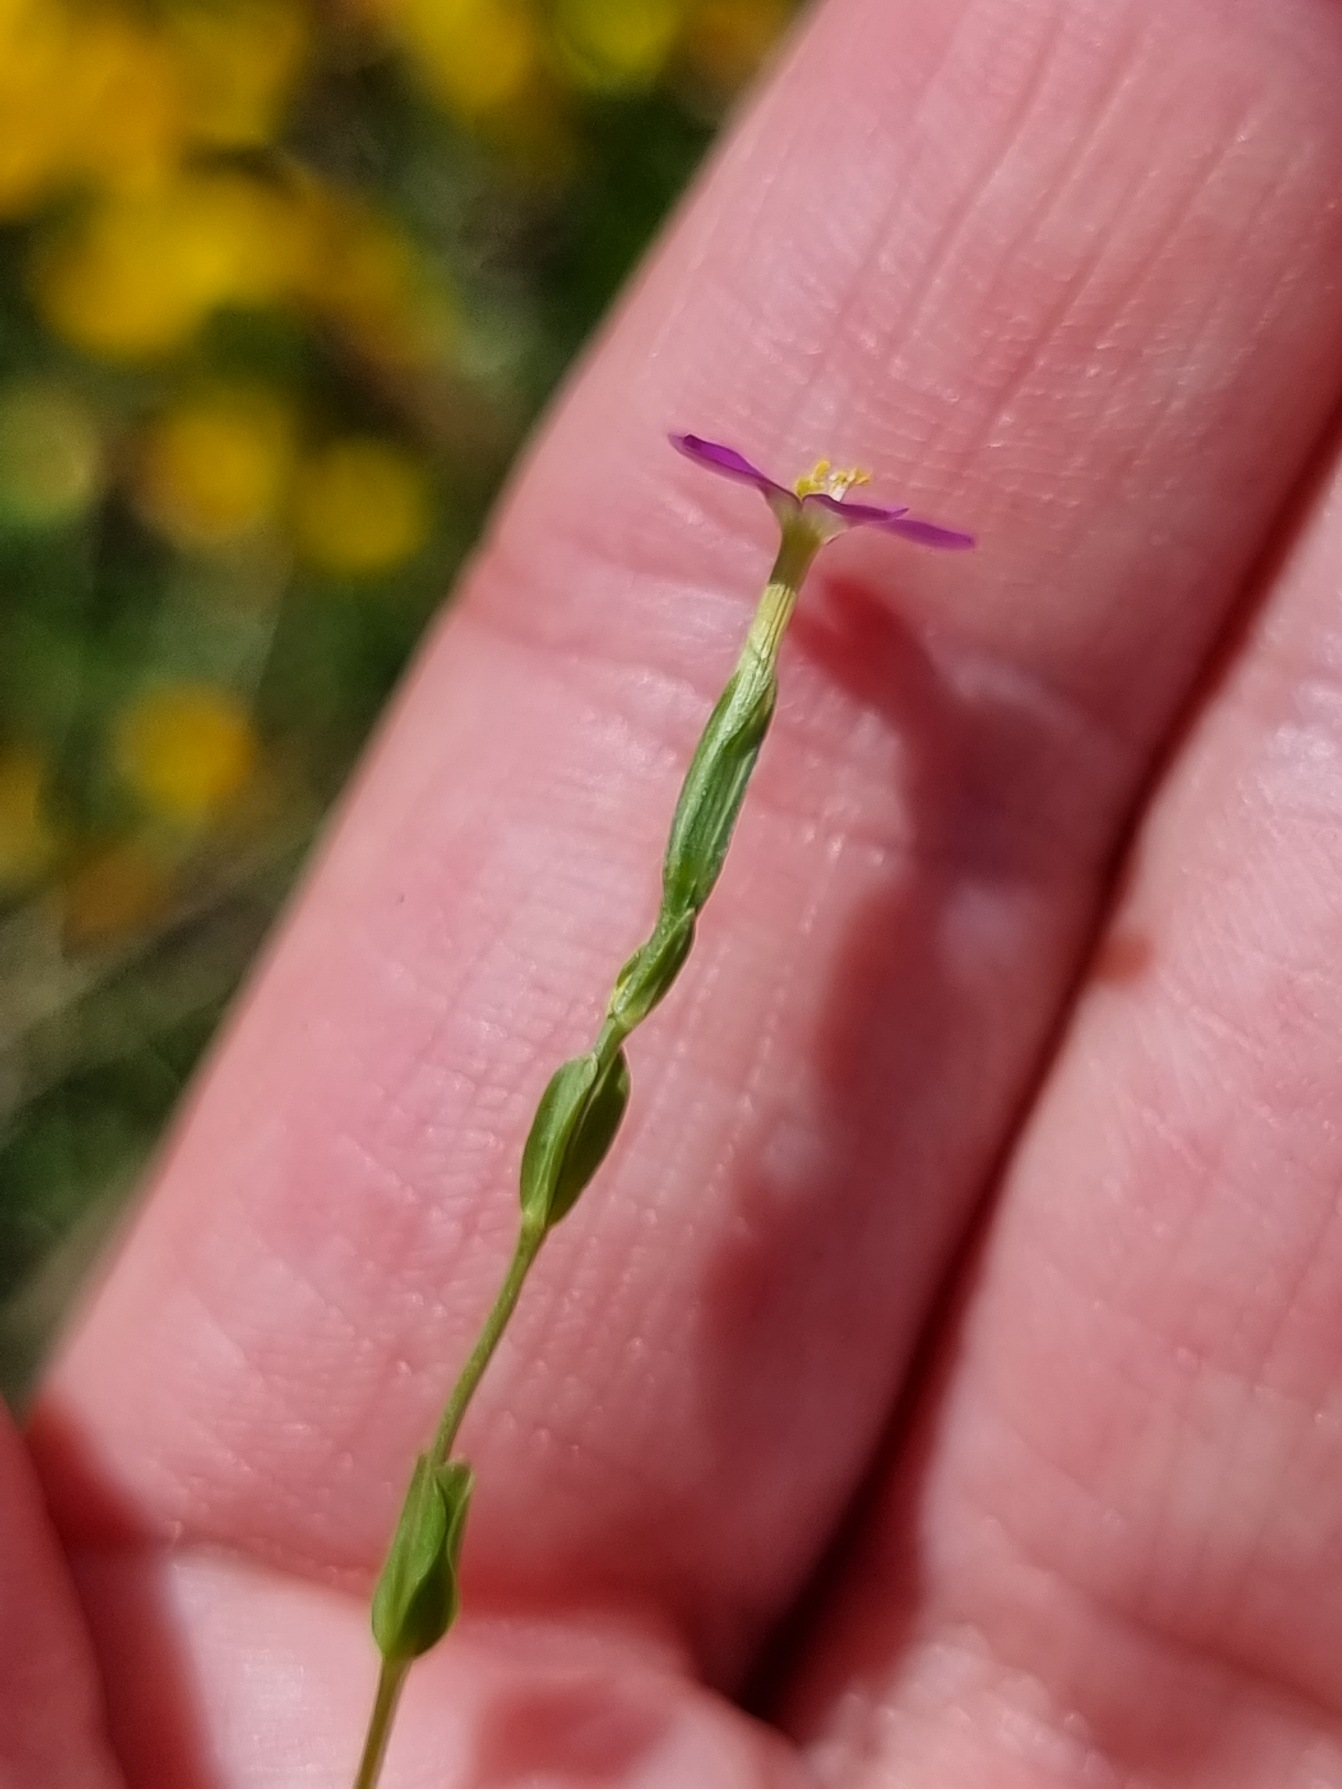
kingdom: Plantae
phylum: Tracheophyta
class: Magnoliopsida
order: Gentianales
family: Gentianaceae
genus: Centaurium
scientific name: Centaurium pulchellum
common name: Liden tusindgylden
